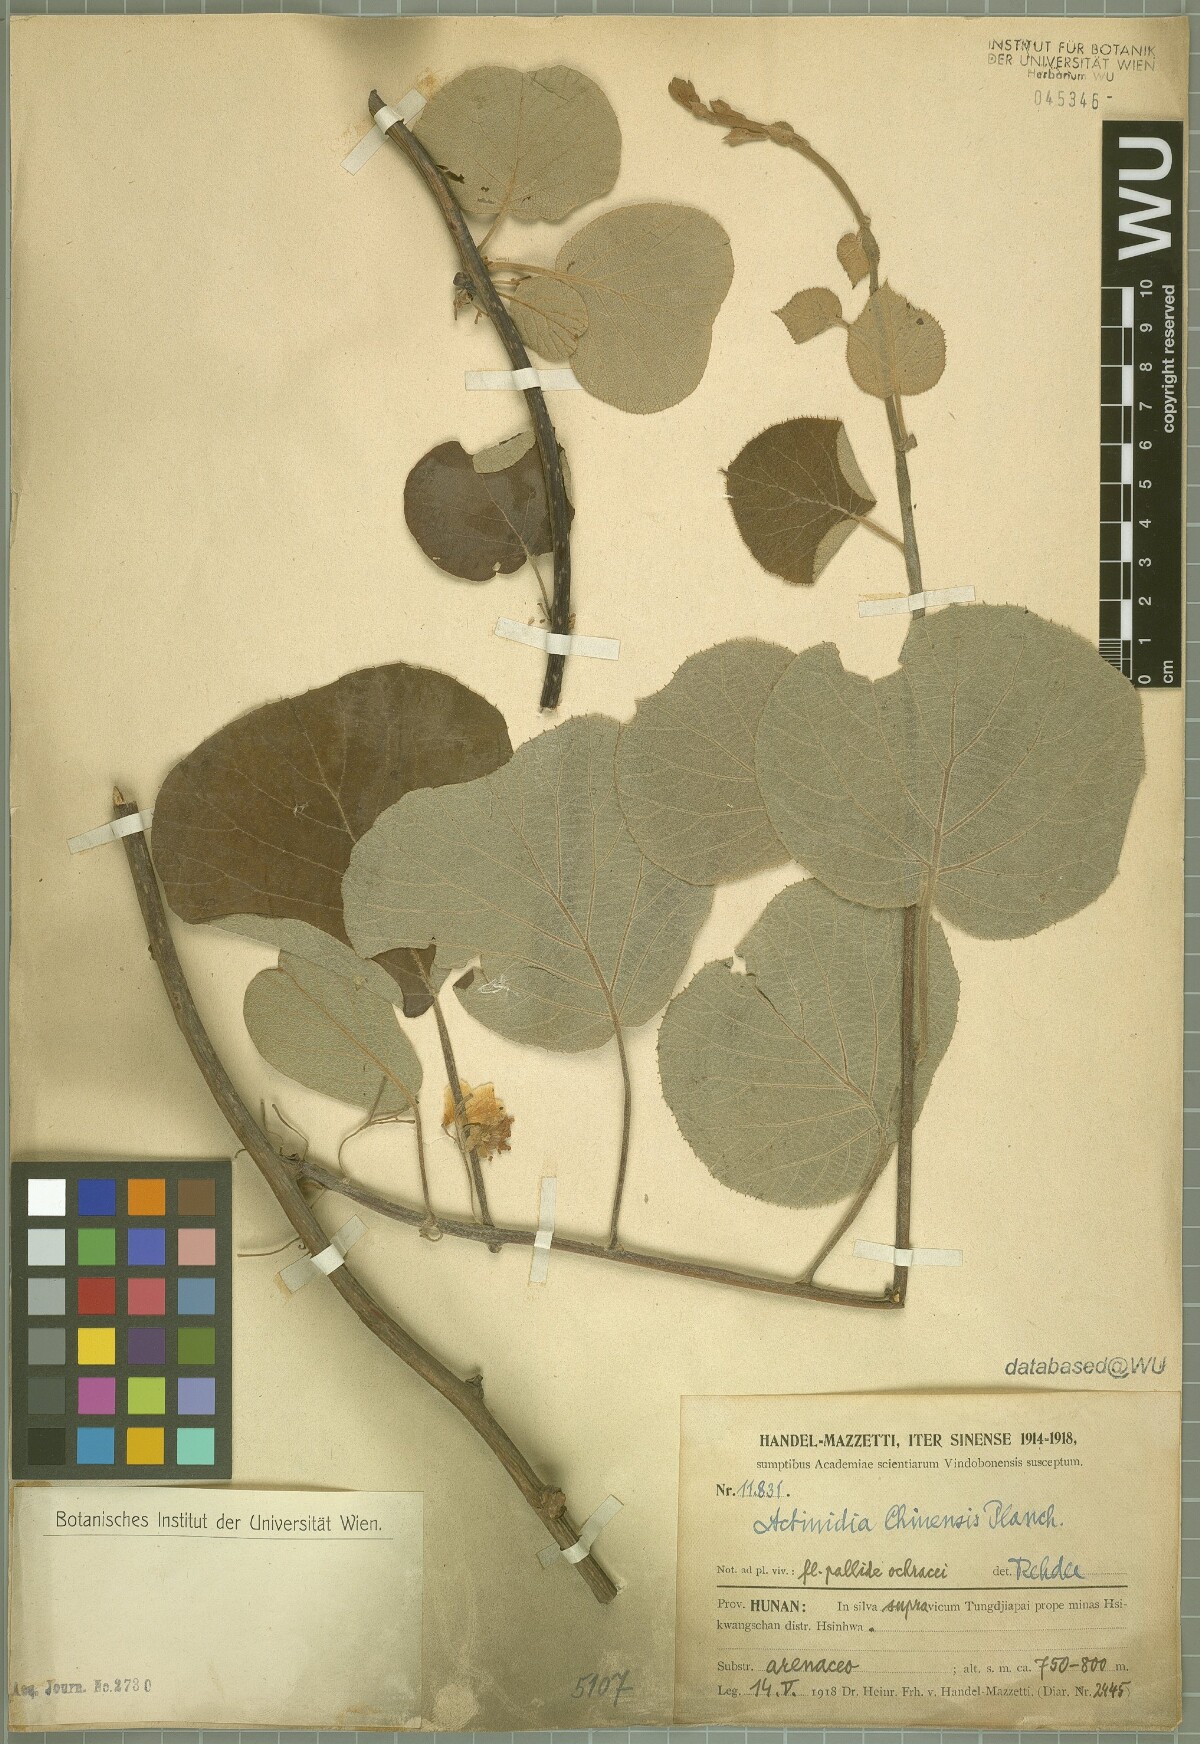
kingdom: Plantae
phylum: Tracheophyta
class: Magnoliopsida
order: Ericales
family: Actinidiaceae
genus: Actinidia
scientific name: Actinidia chinensis
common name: Kiwi
